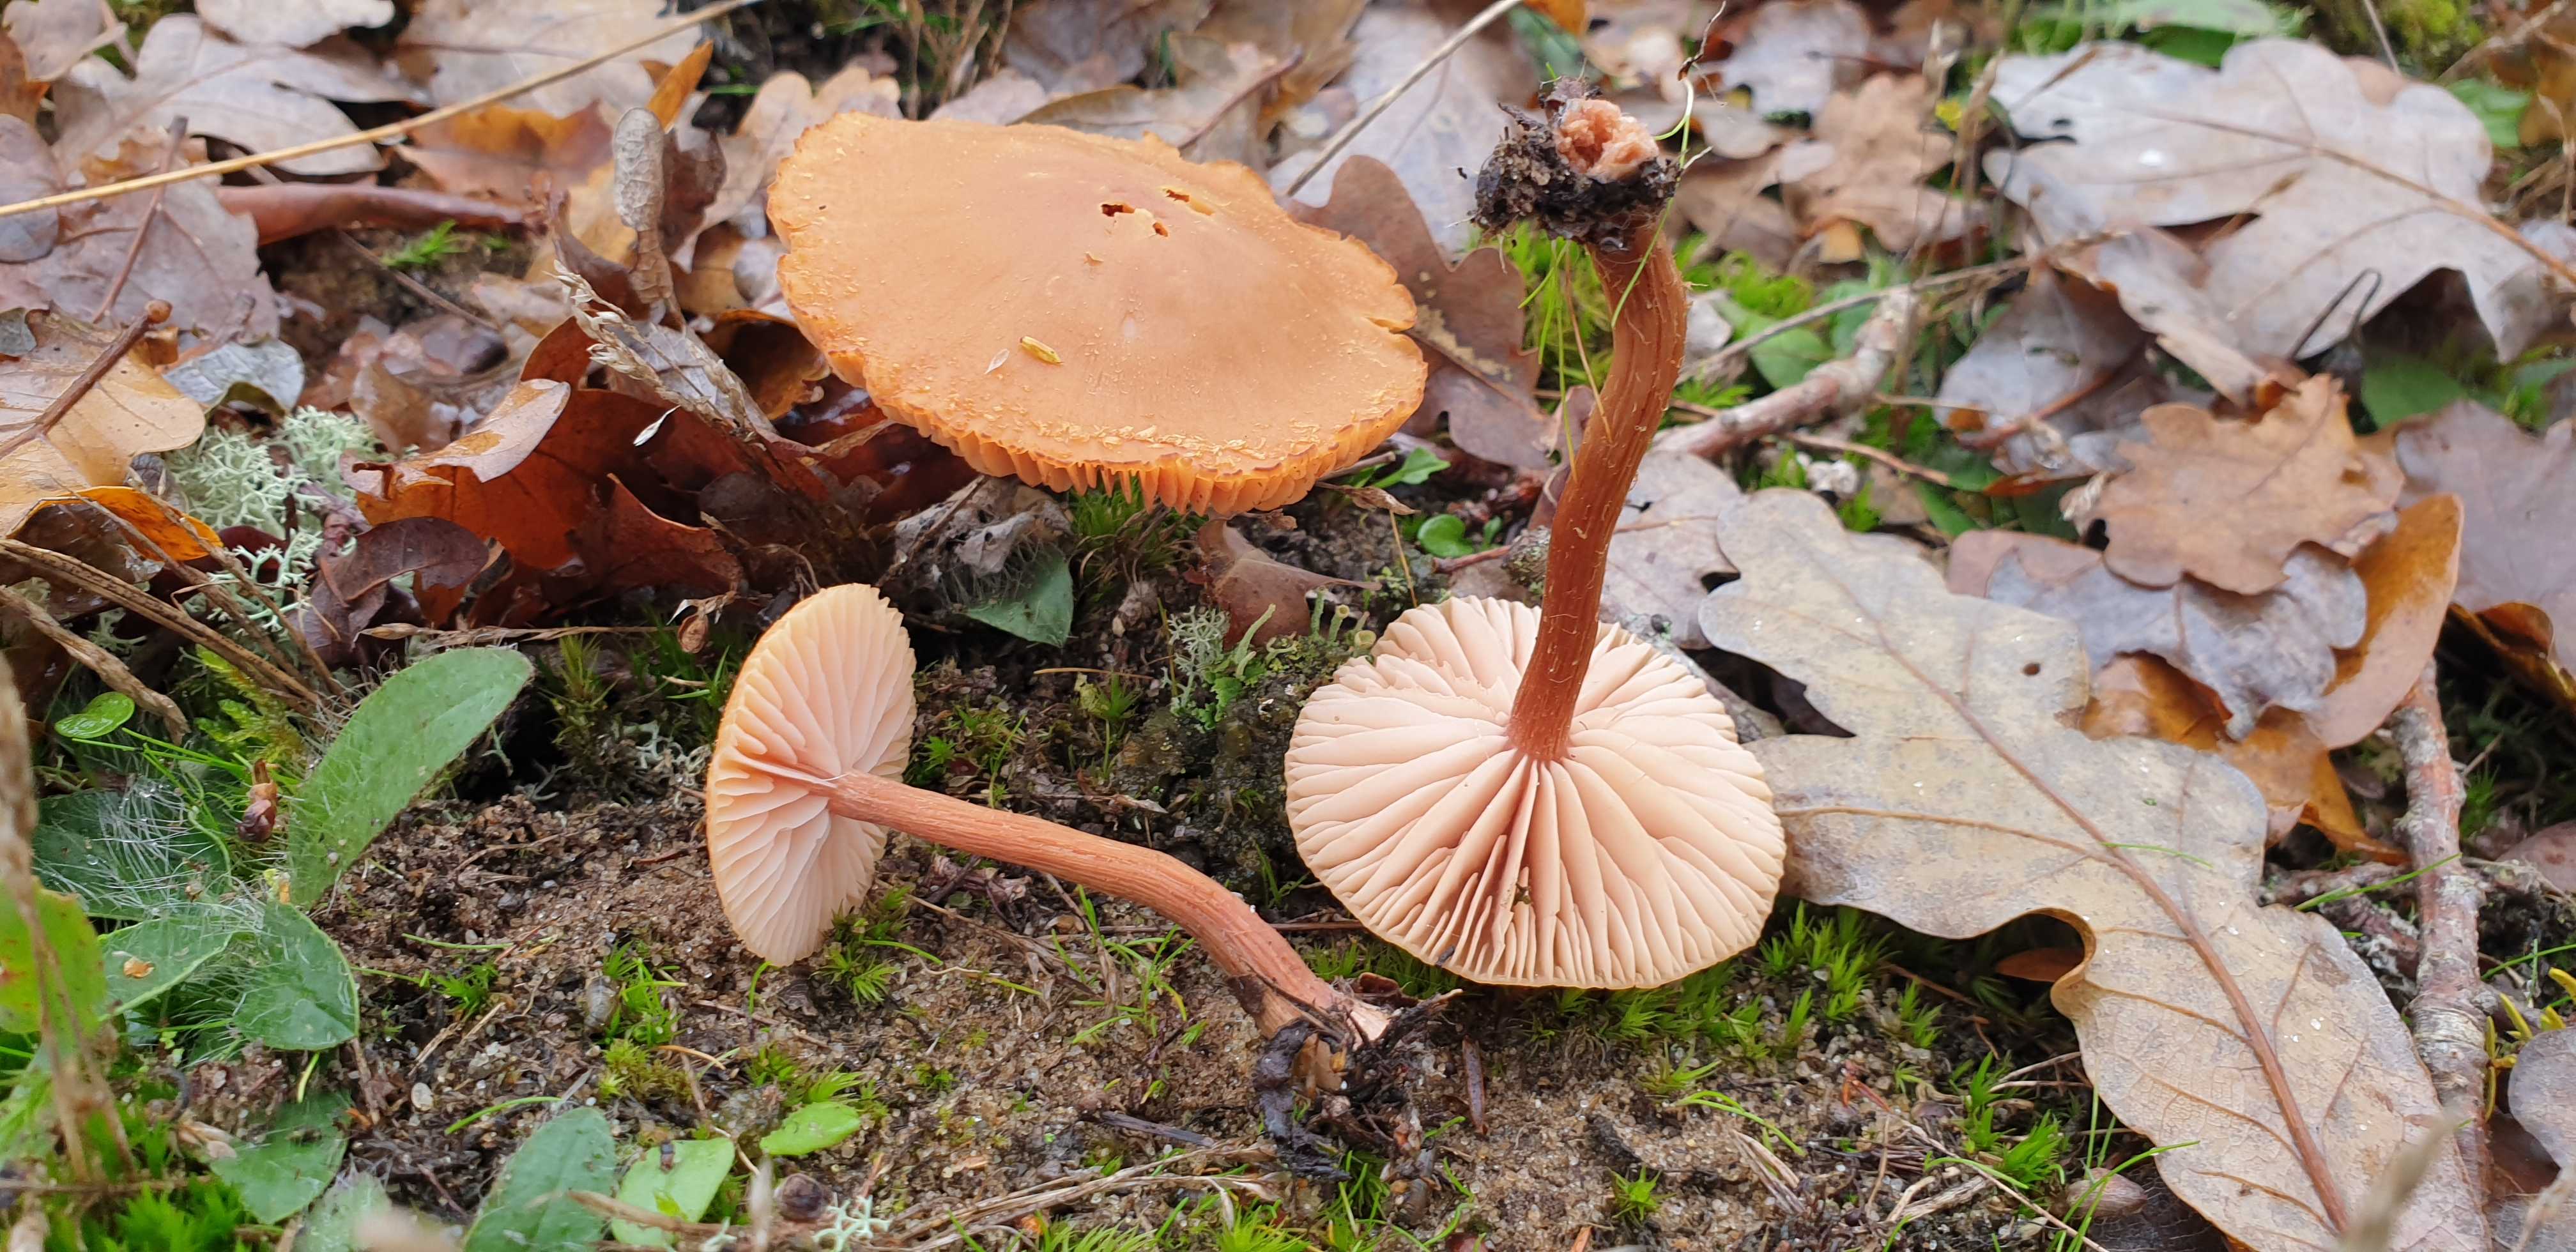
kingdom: Fungi
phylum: Basidiomycota
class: Agaricomycetes
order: Agaricales
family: Hydnangiaceae
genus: Laccaria
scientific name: Laccaria proxima
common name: stor ametysthat
